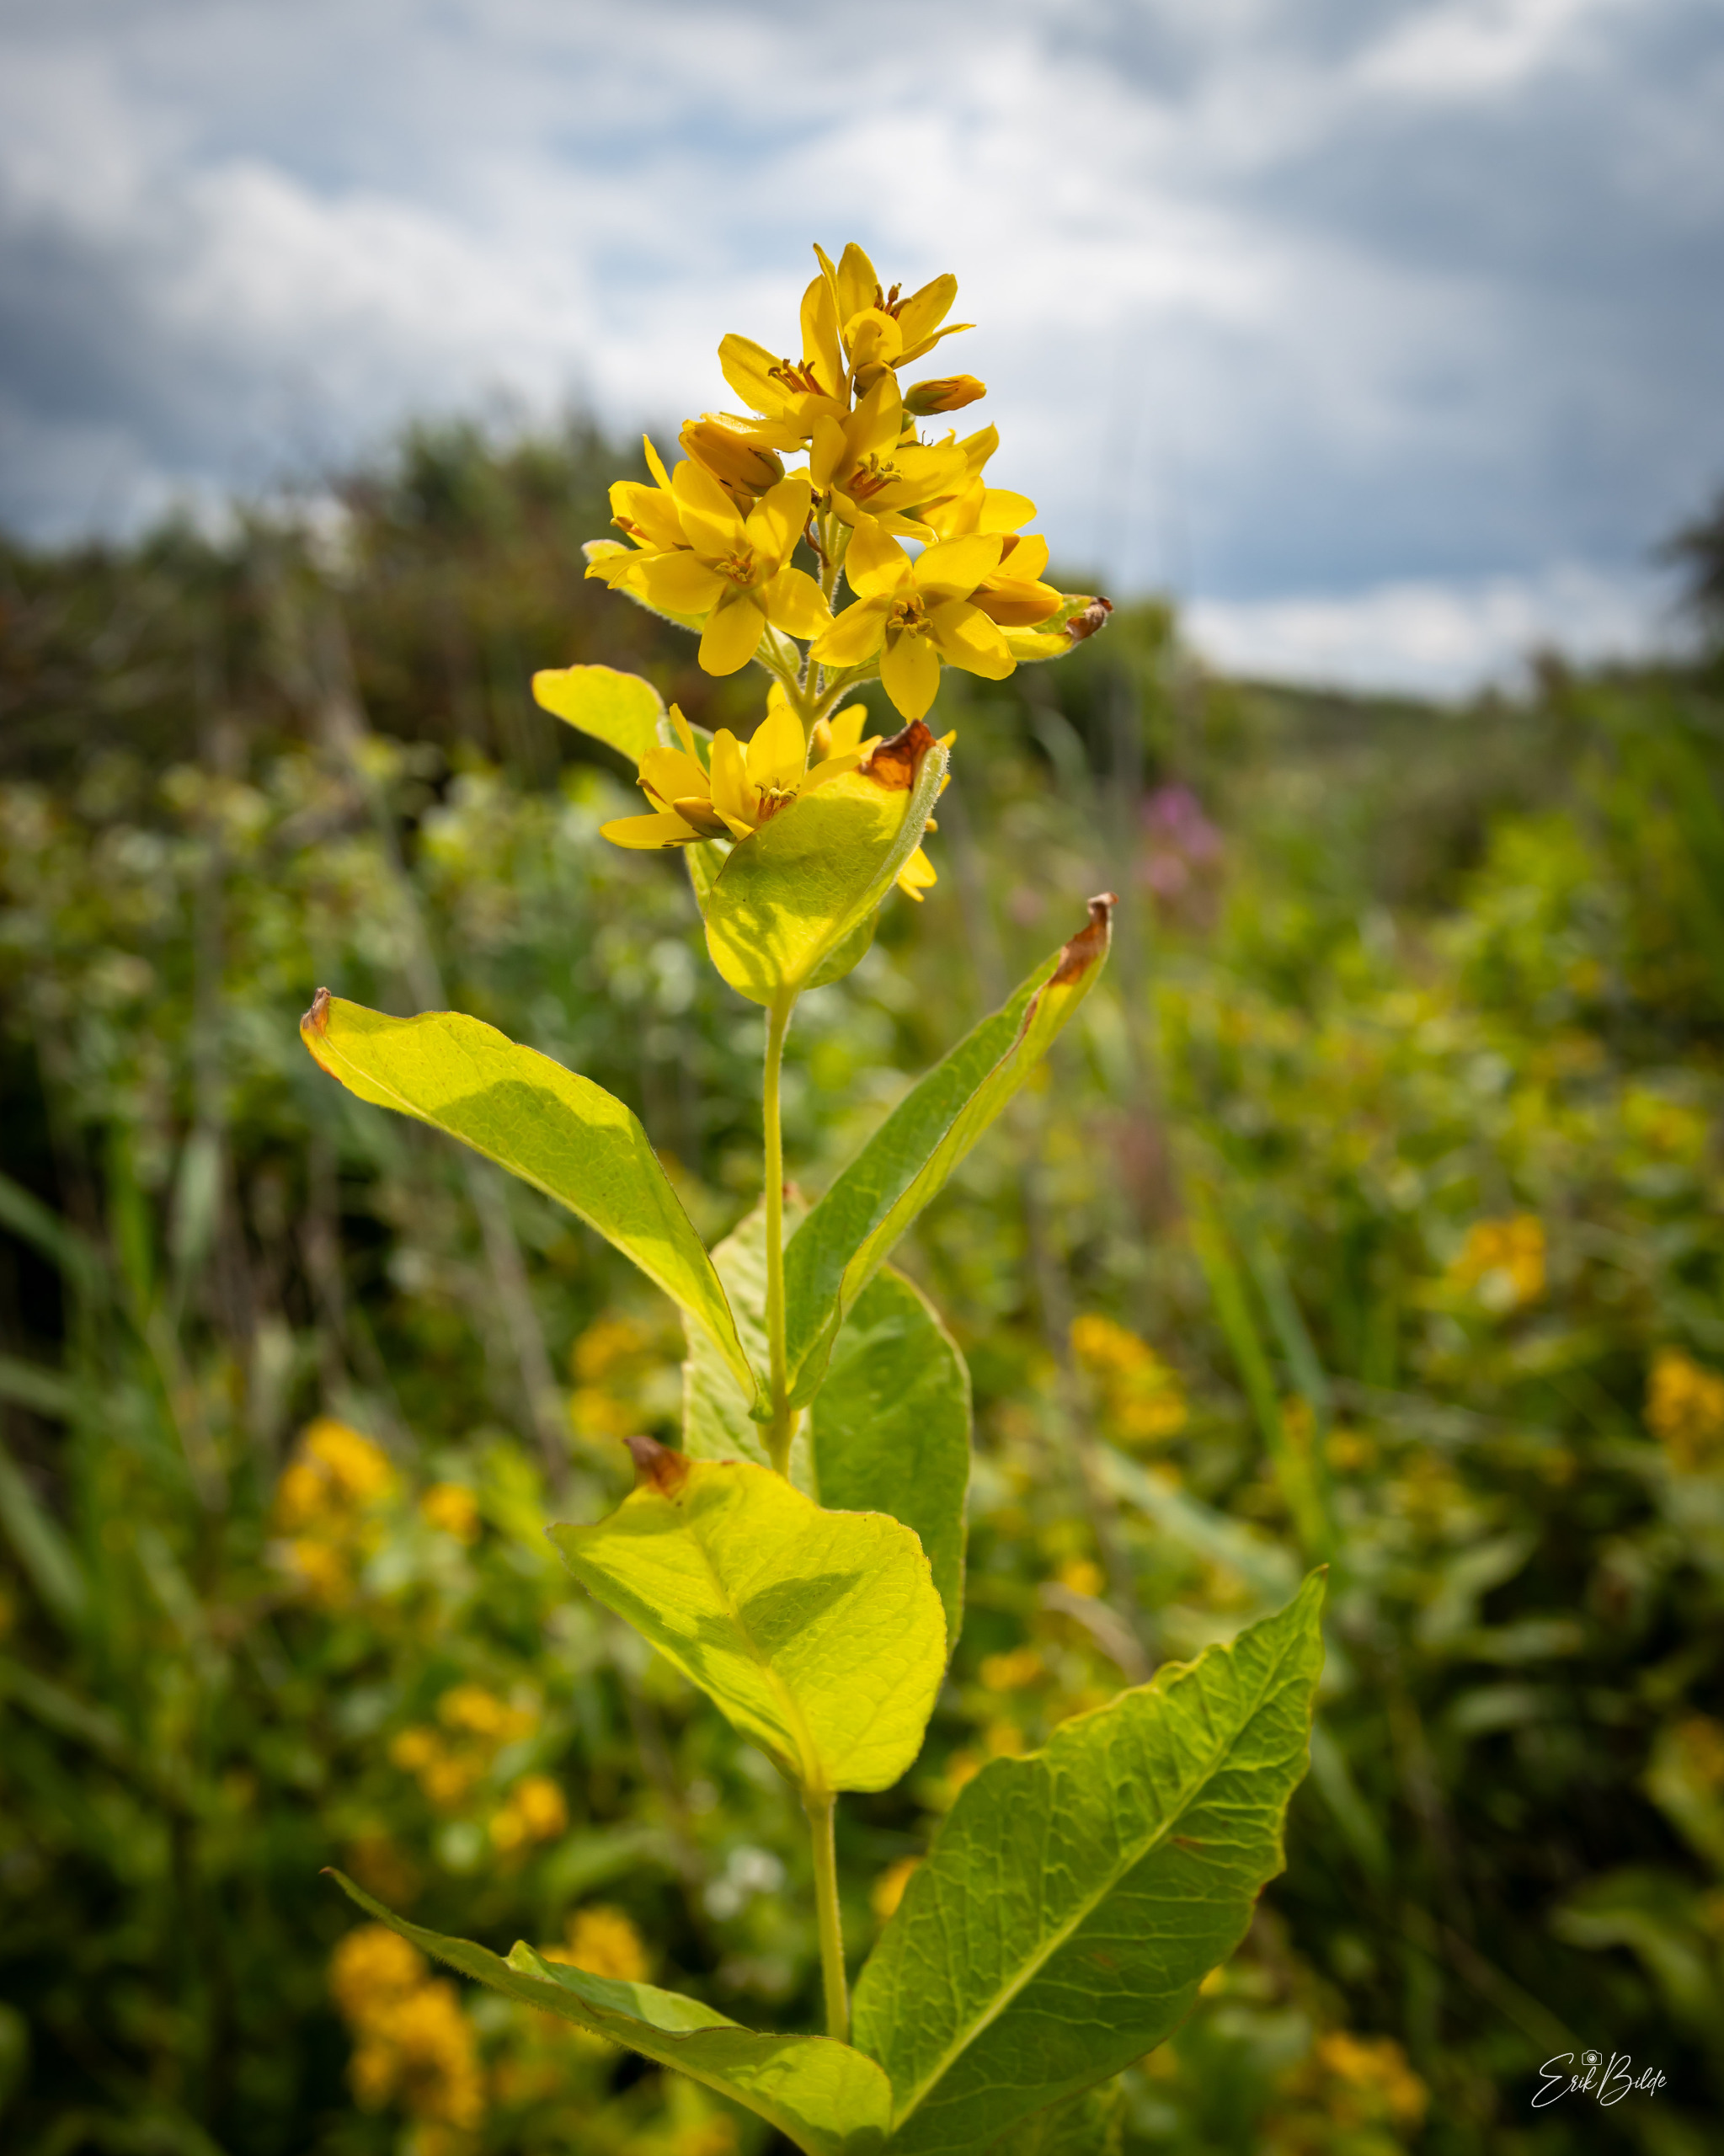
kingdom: Plantae
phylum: Tracheophyta
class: Magnoliopsida
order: Ericales
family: Primulaceae
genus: Lysimachia
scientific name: Lysimachia vulgaris
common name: Almindelig fredløs
